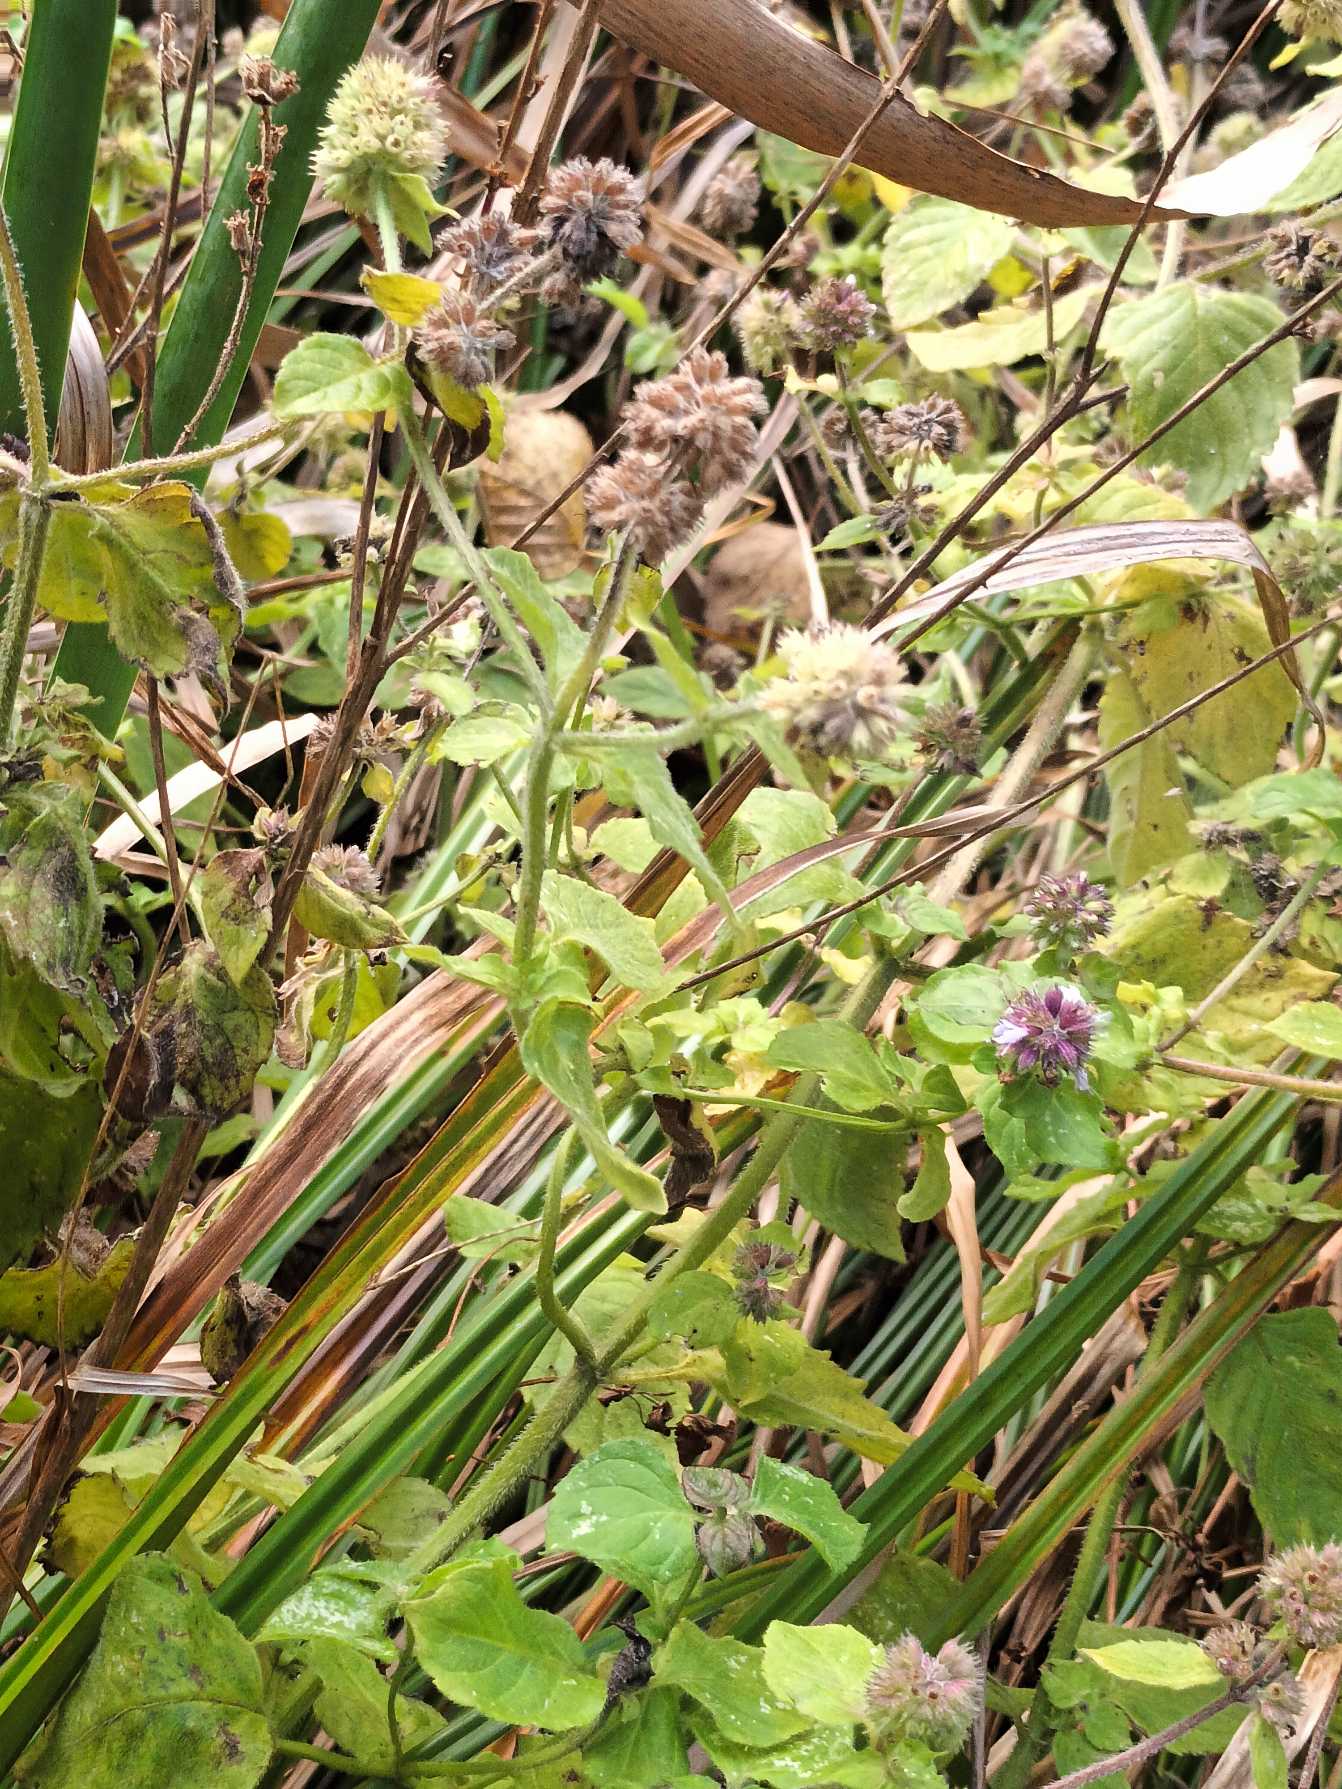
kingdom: Plantae
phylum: Tracheophyta
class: Magnoliopsida
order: Lamiales
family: Lamiaceae
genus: Mentha
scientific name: Mentha aquatica
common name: Vand-mynte
